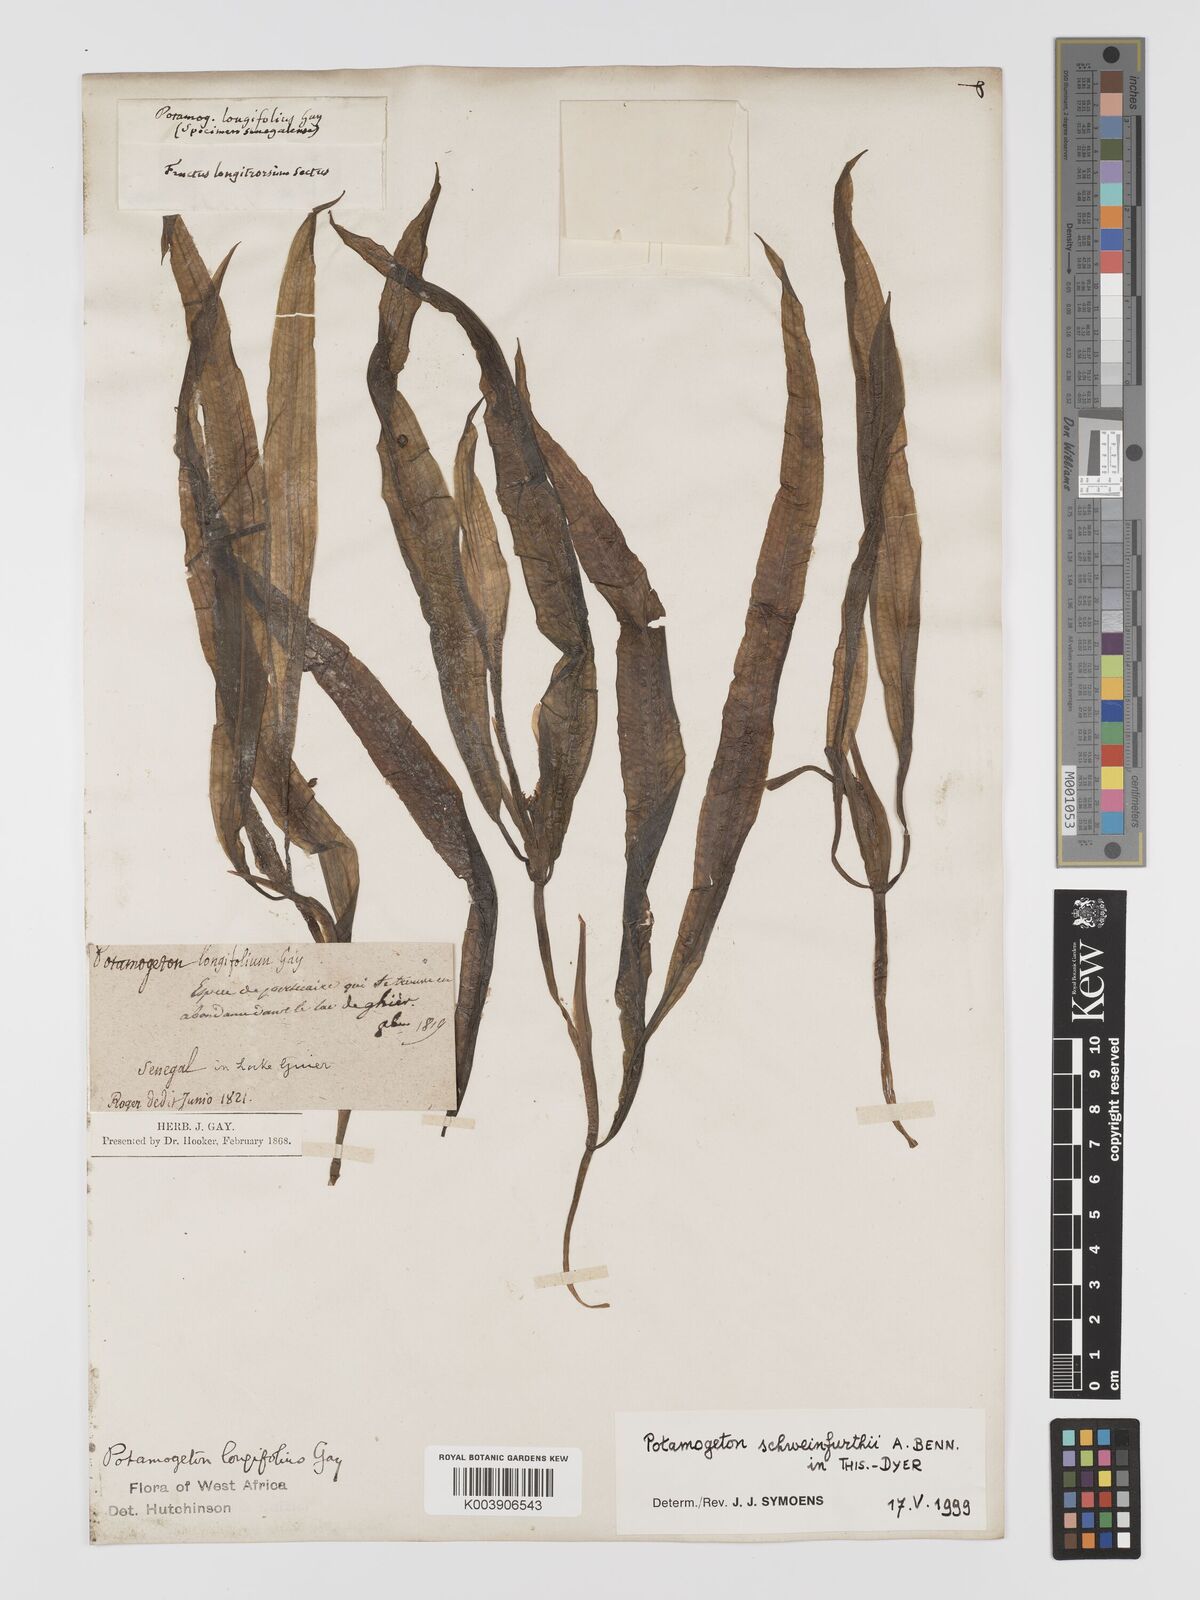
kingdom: Plantae
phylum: Tracheophyta
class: Liliopsida
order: Alismatales
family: Potamogetonaceae
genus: Potamogeton
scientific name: Potamogeton schweinfurthii
